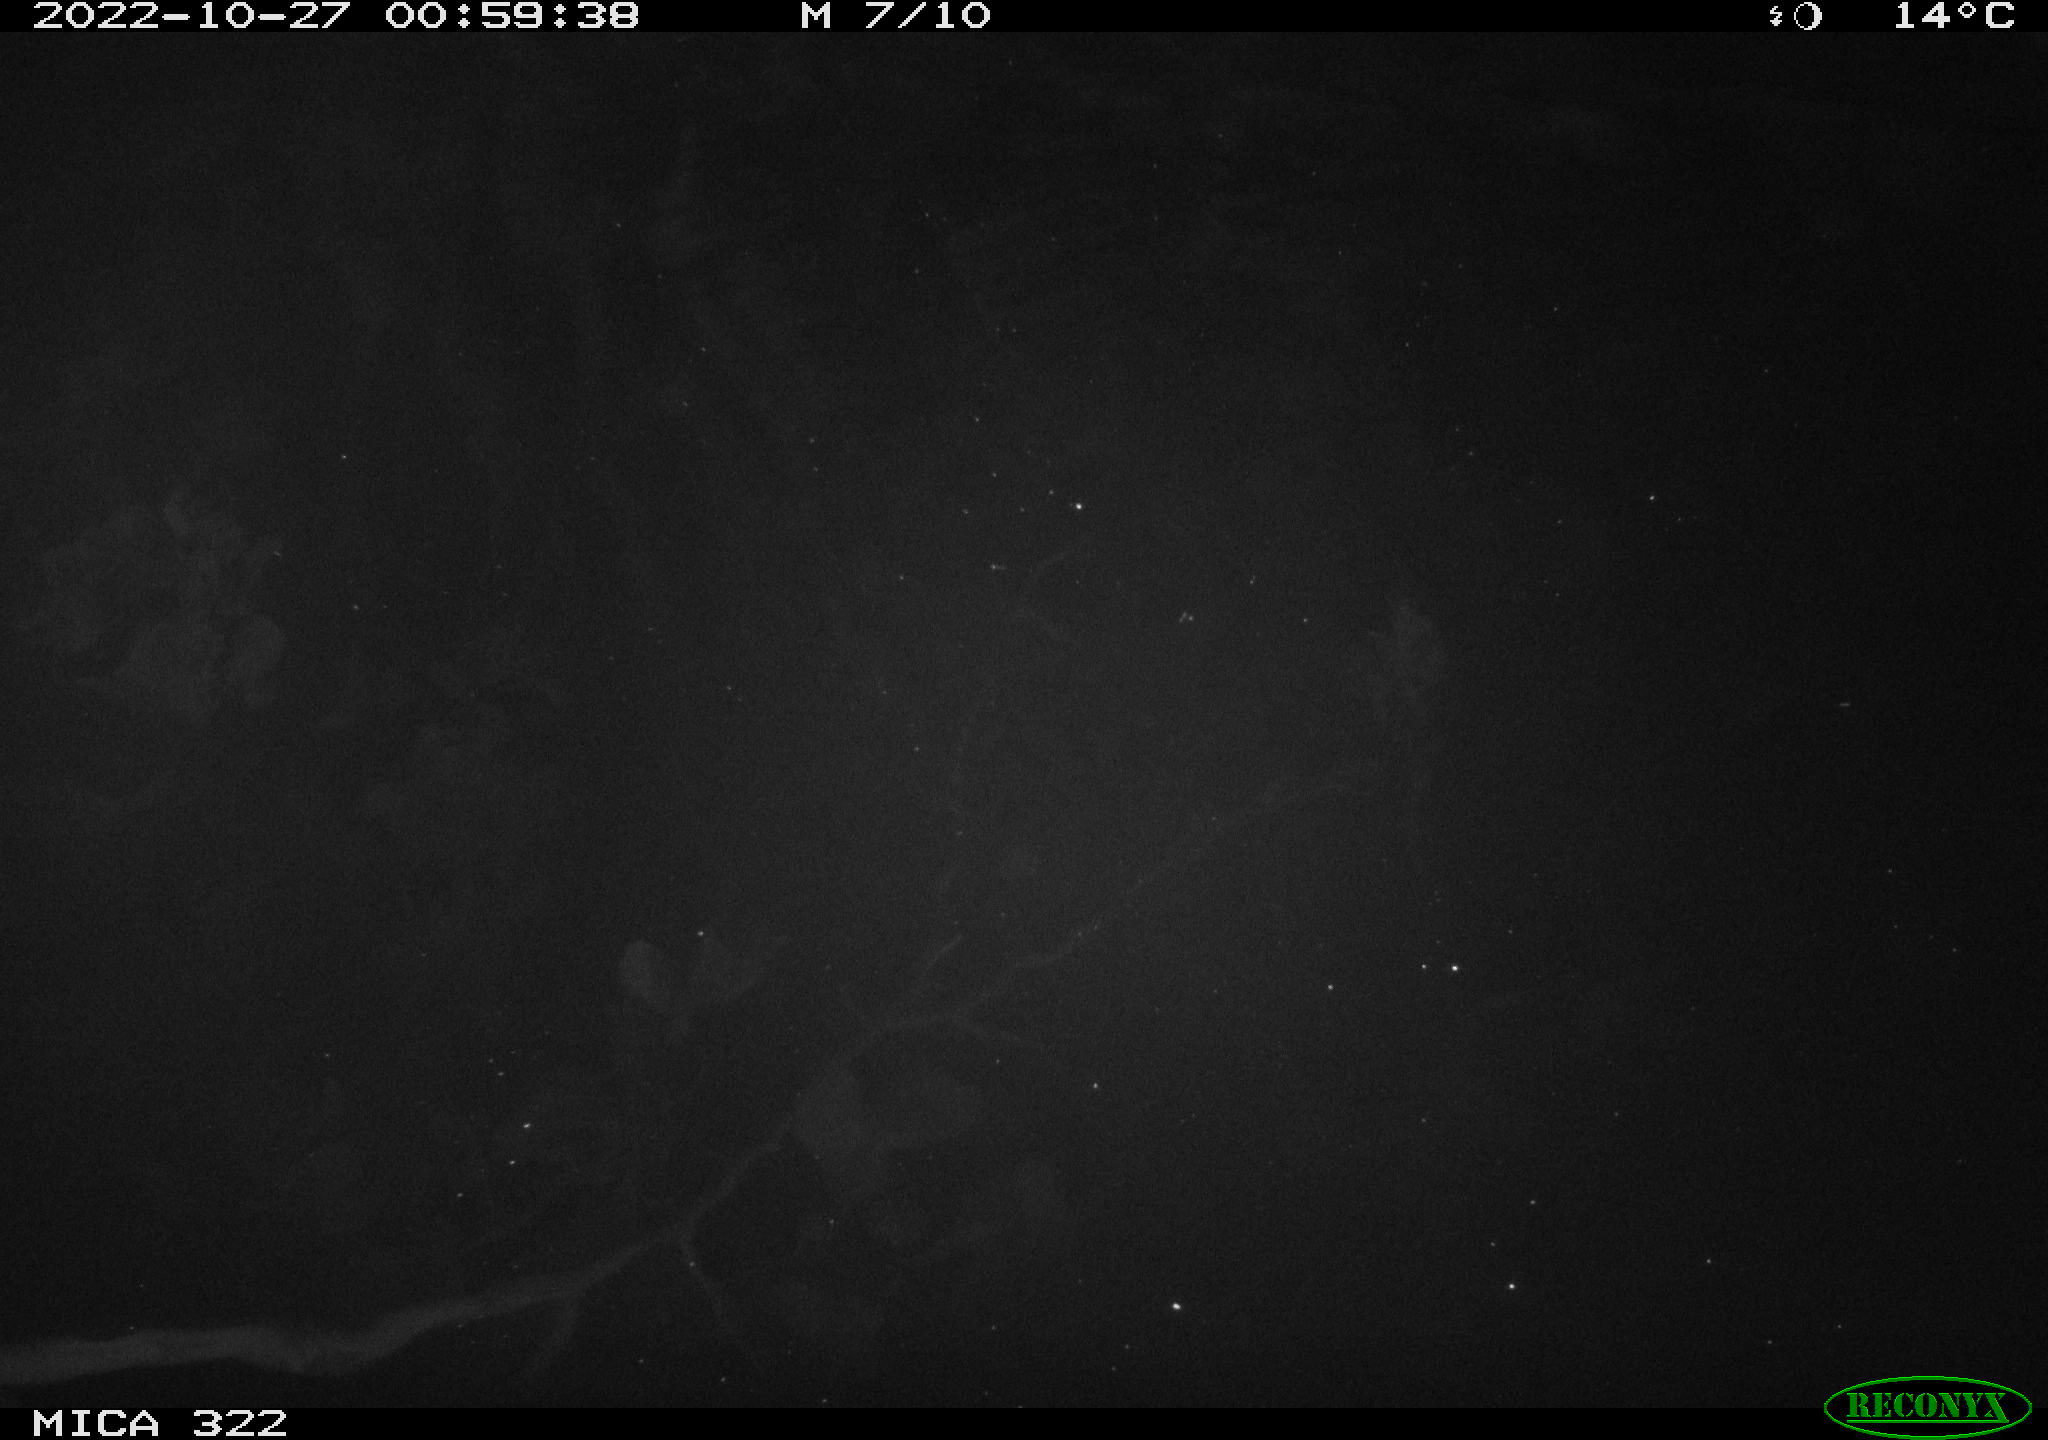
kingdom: Animalia
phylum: Chordata
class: Mammalia
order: Rodentia
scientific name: Rodentia
